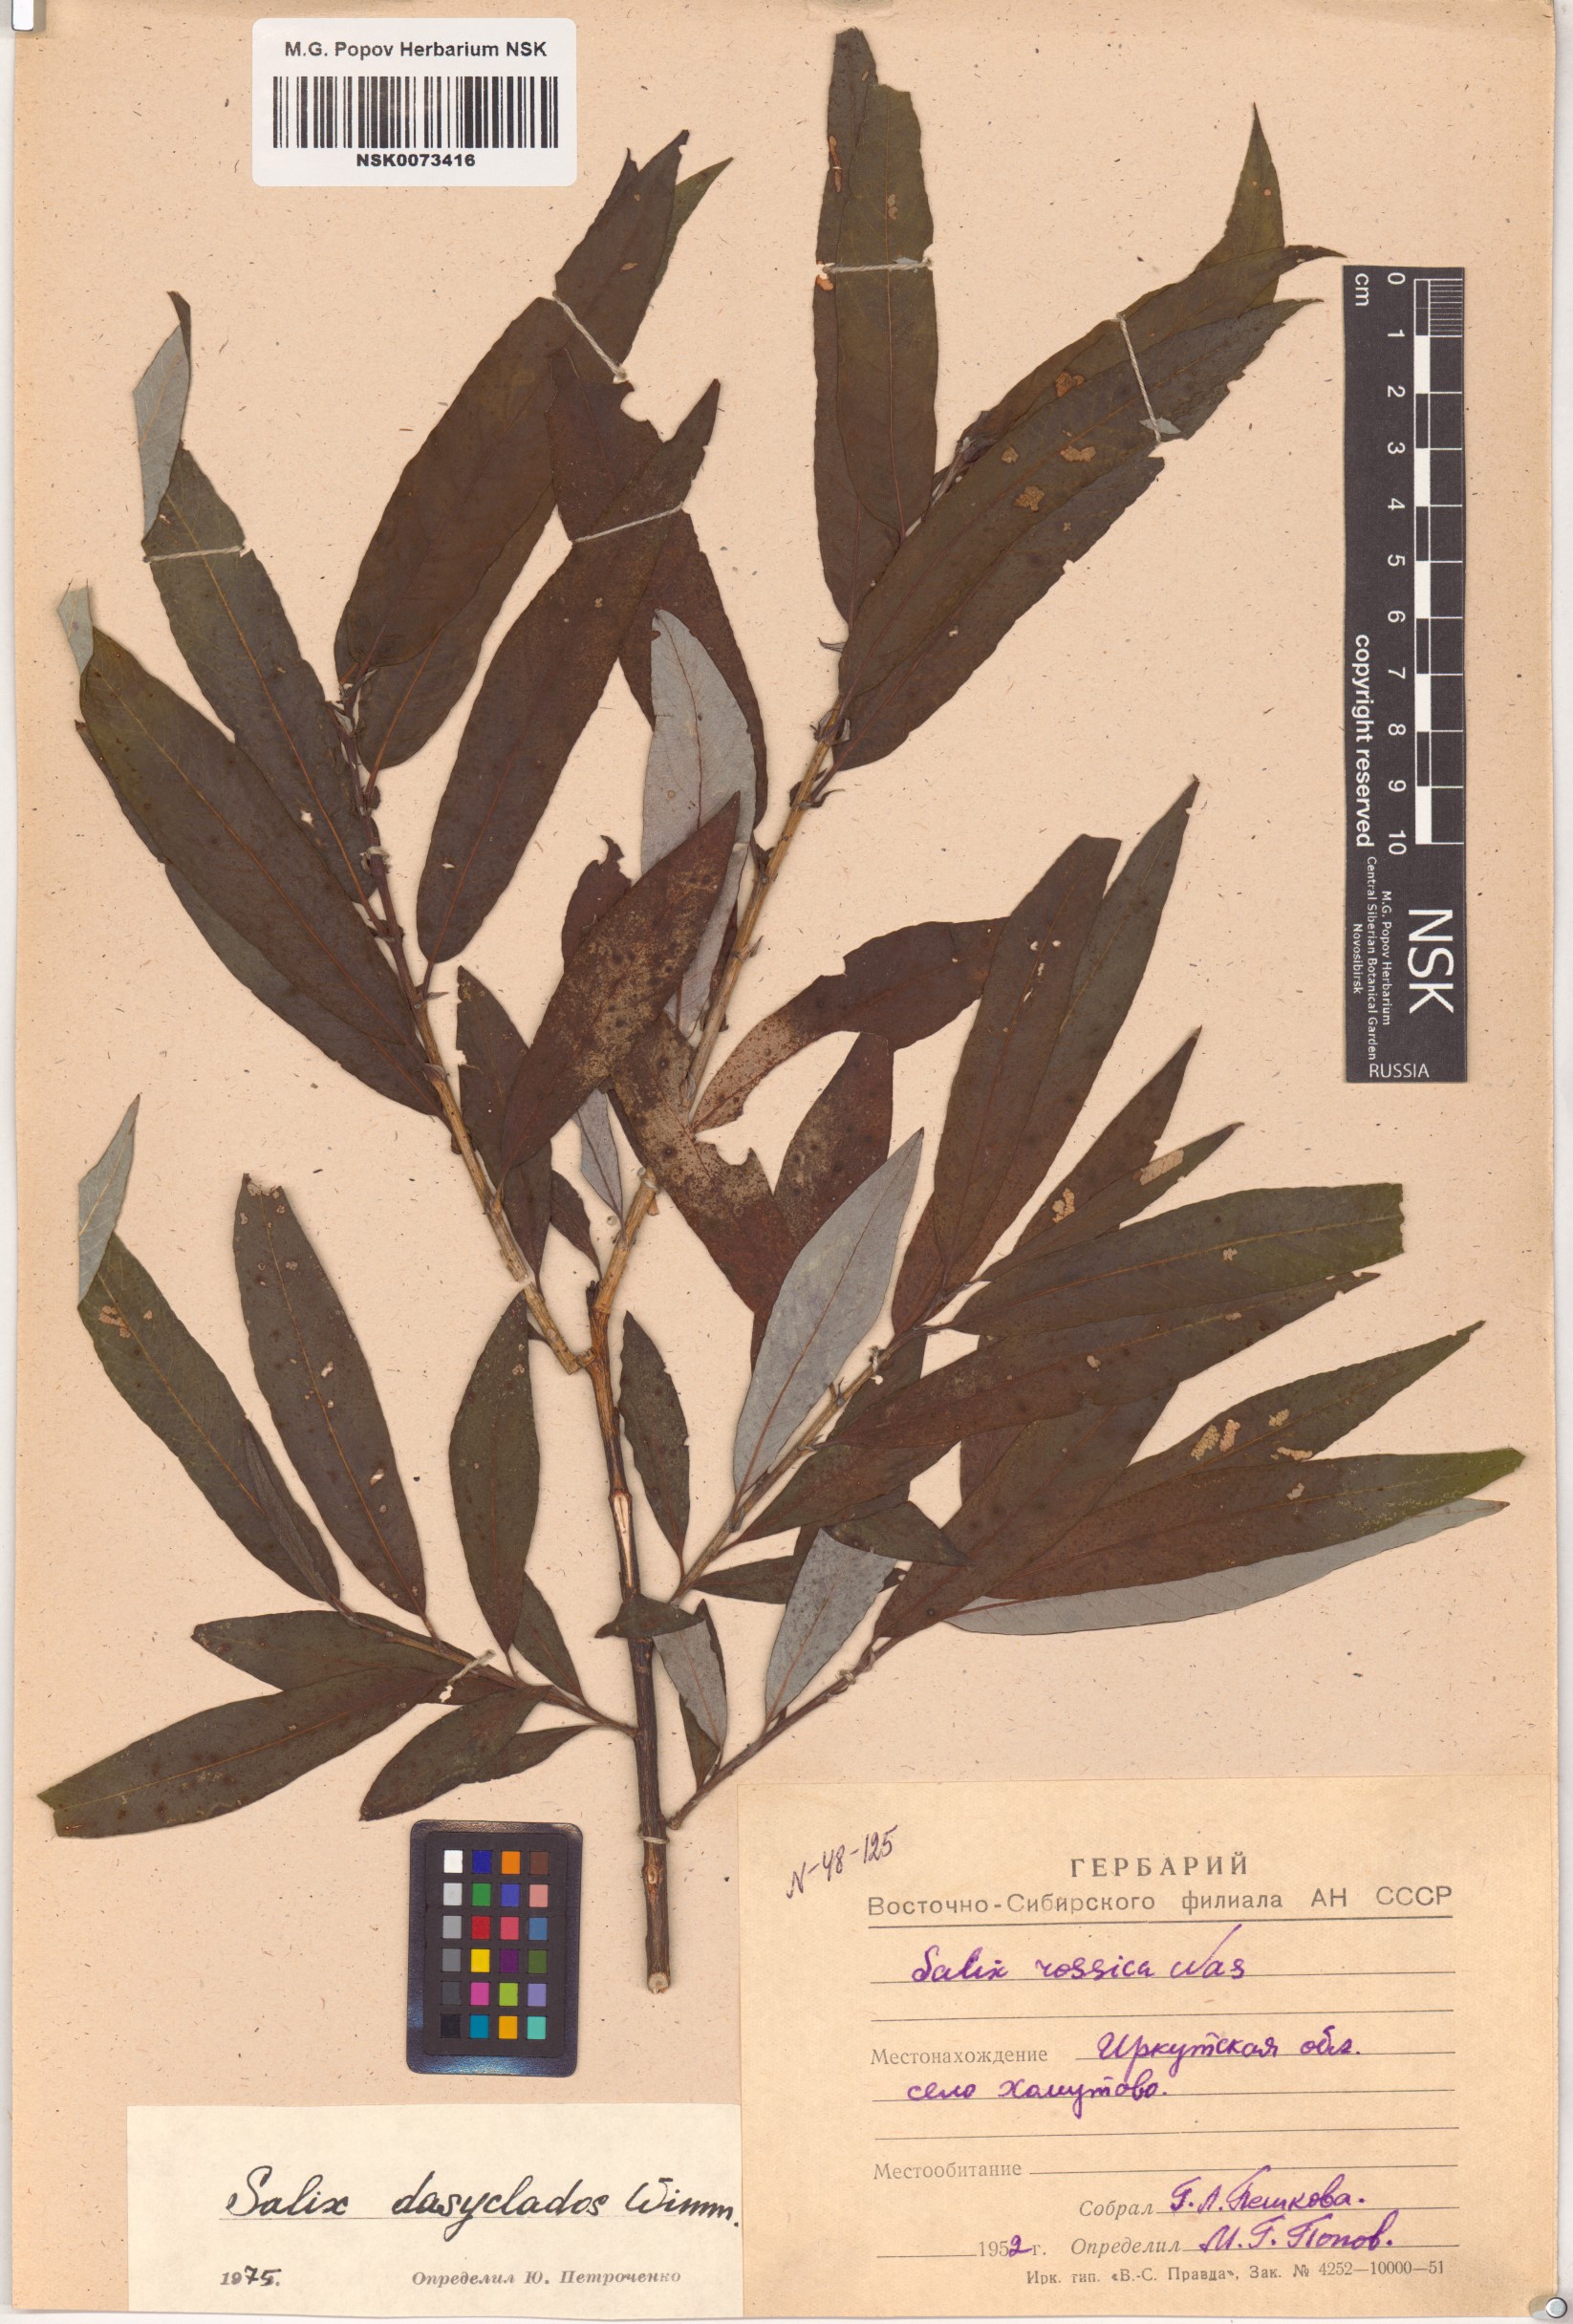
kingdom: Plantae
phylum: Tracheophyta
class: Magnoliopsida
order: Malpighiales
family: Salicaceae
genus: Salix
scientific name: Salix gmelinii
